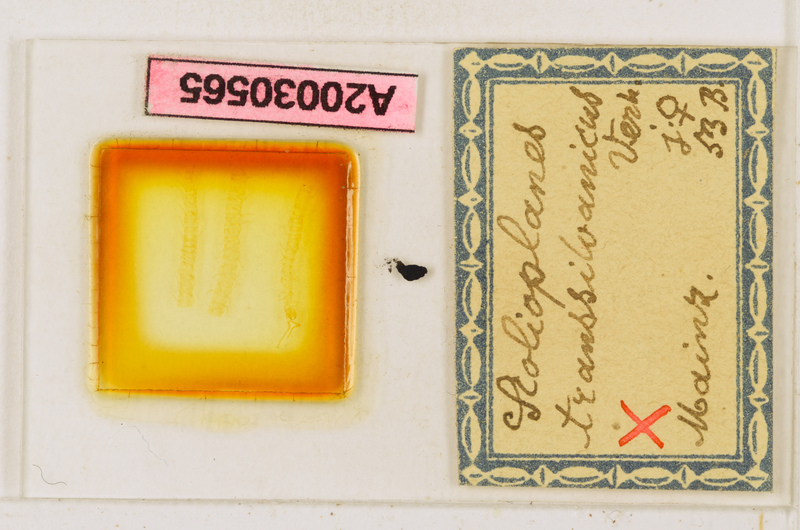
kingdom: Animalia
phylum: Arthropoda
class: Chilopoda
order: Geophilomorpha
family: Linotaeniidae
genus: Strigamia
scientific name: Strigamia transsilvanica
